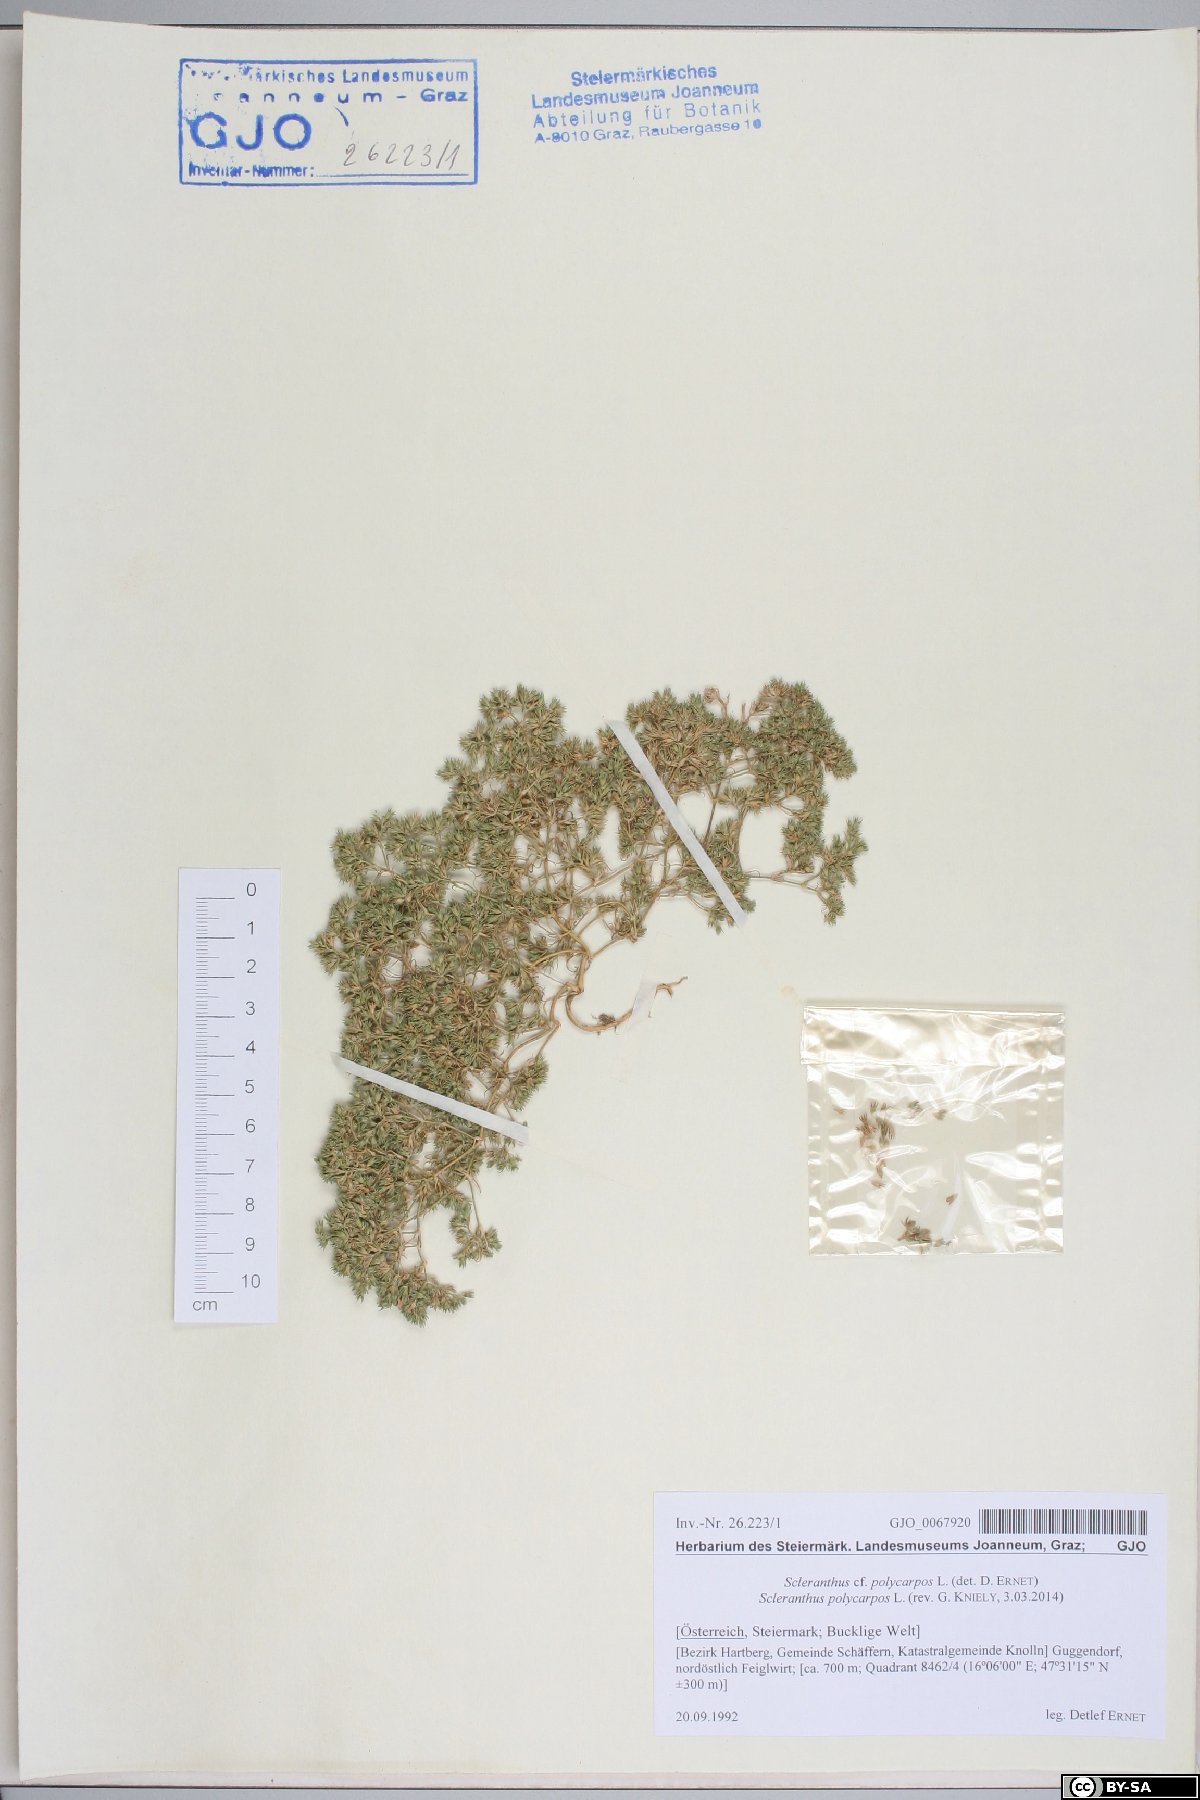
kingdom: Plantae
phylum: Tracheophyta
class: Magnoliopsida
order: Caryophyllales
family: Caryophyllaceae
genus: Scleranthus
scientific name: Scleranthus annuus
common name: Annual knawel
